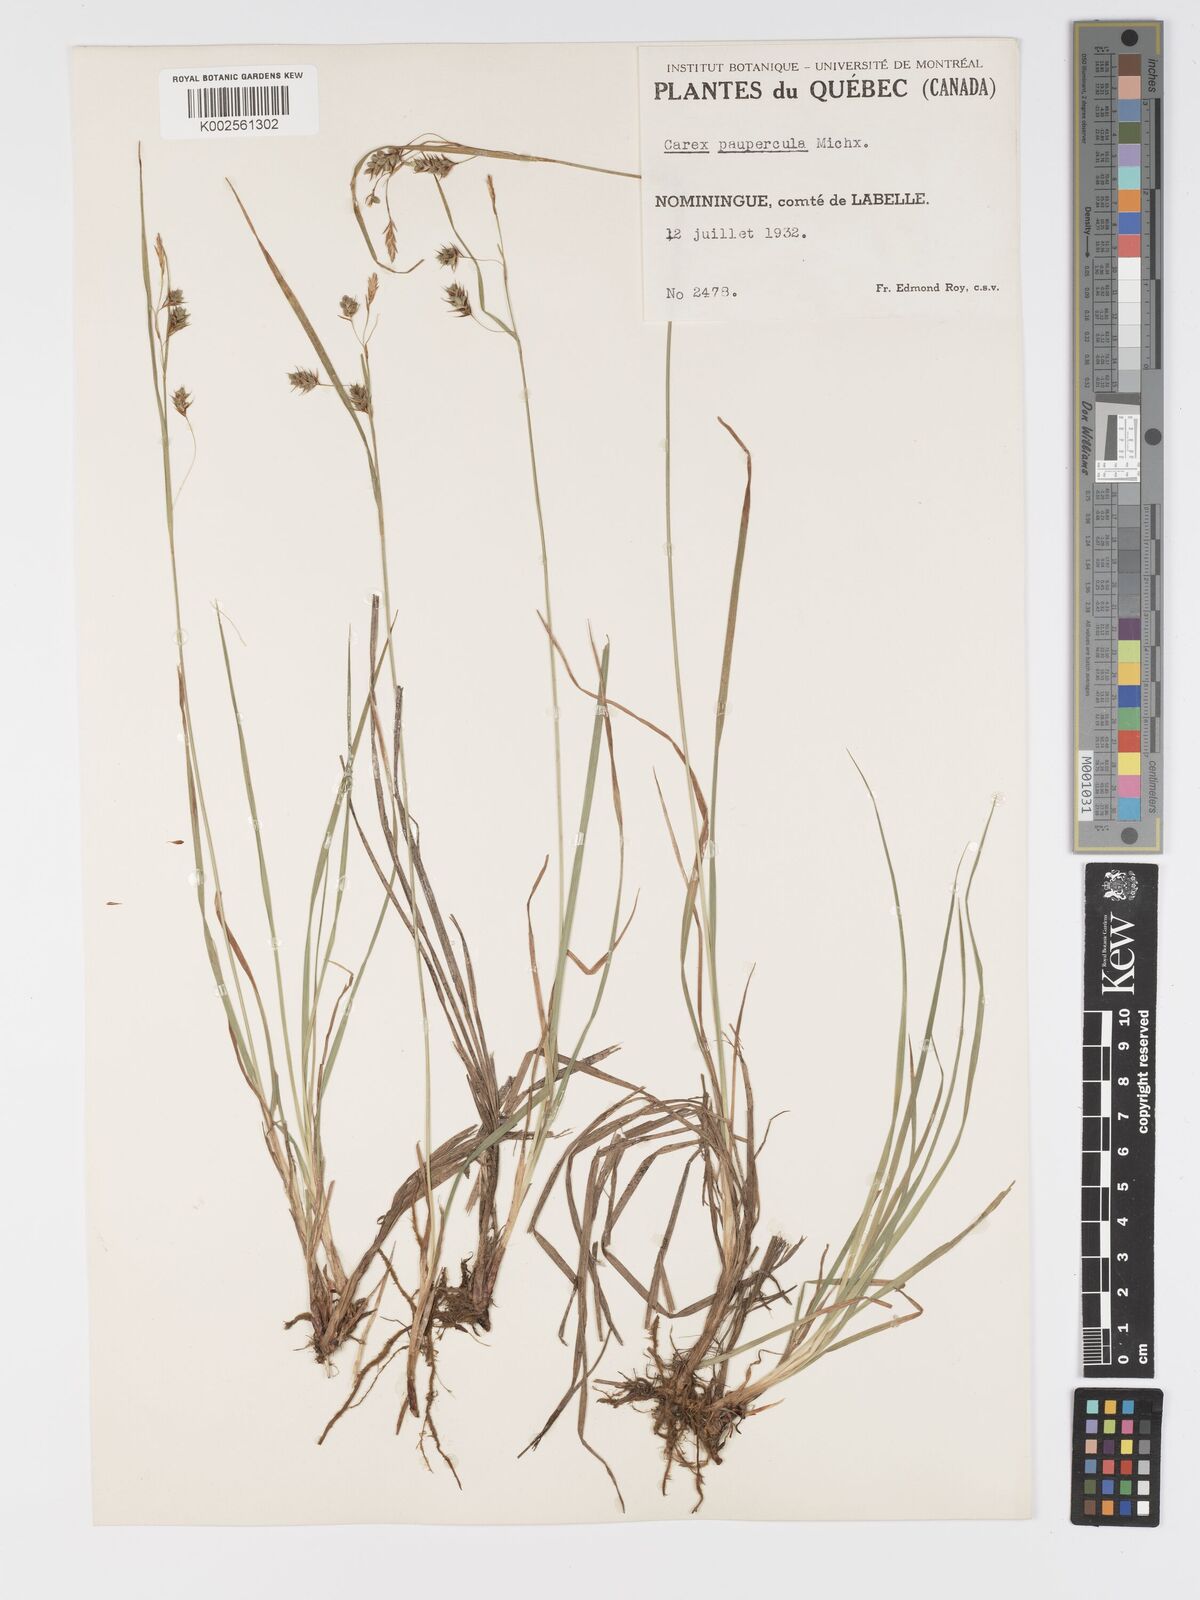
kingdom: Plantae
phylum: Tracheophyta
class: Liliopsida
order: Poales
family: Cyperaceae
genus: Carex
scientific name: Carex magellanica
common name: Bog sedge
